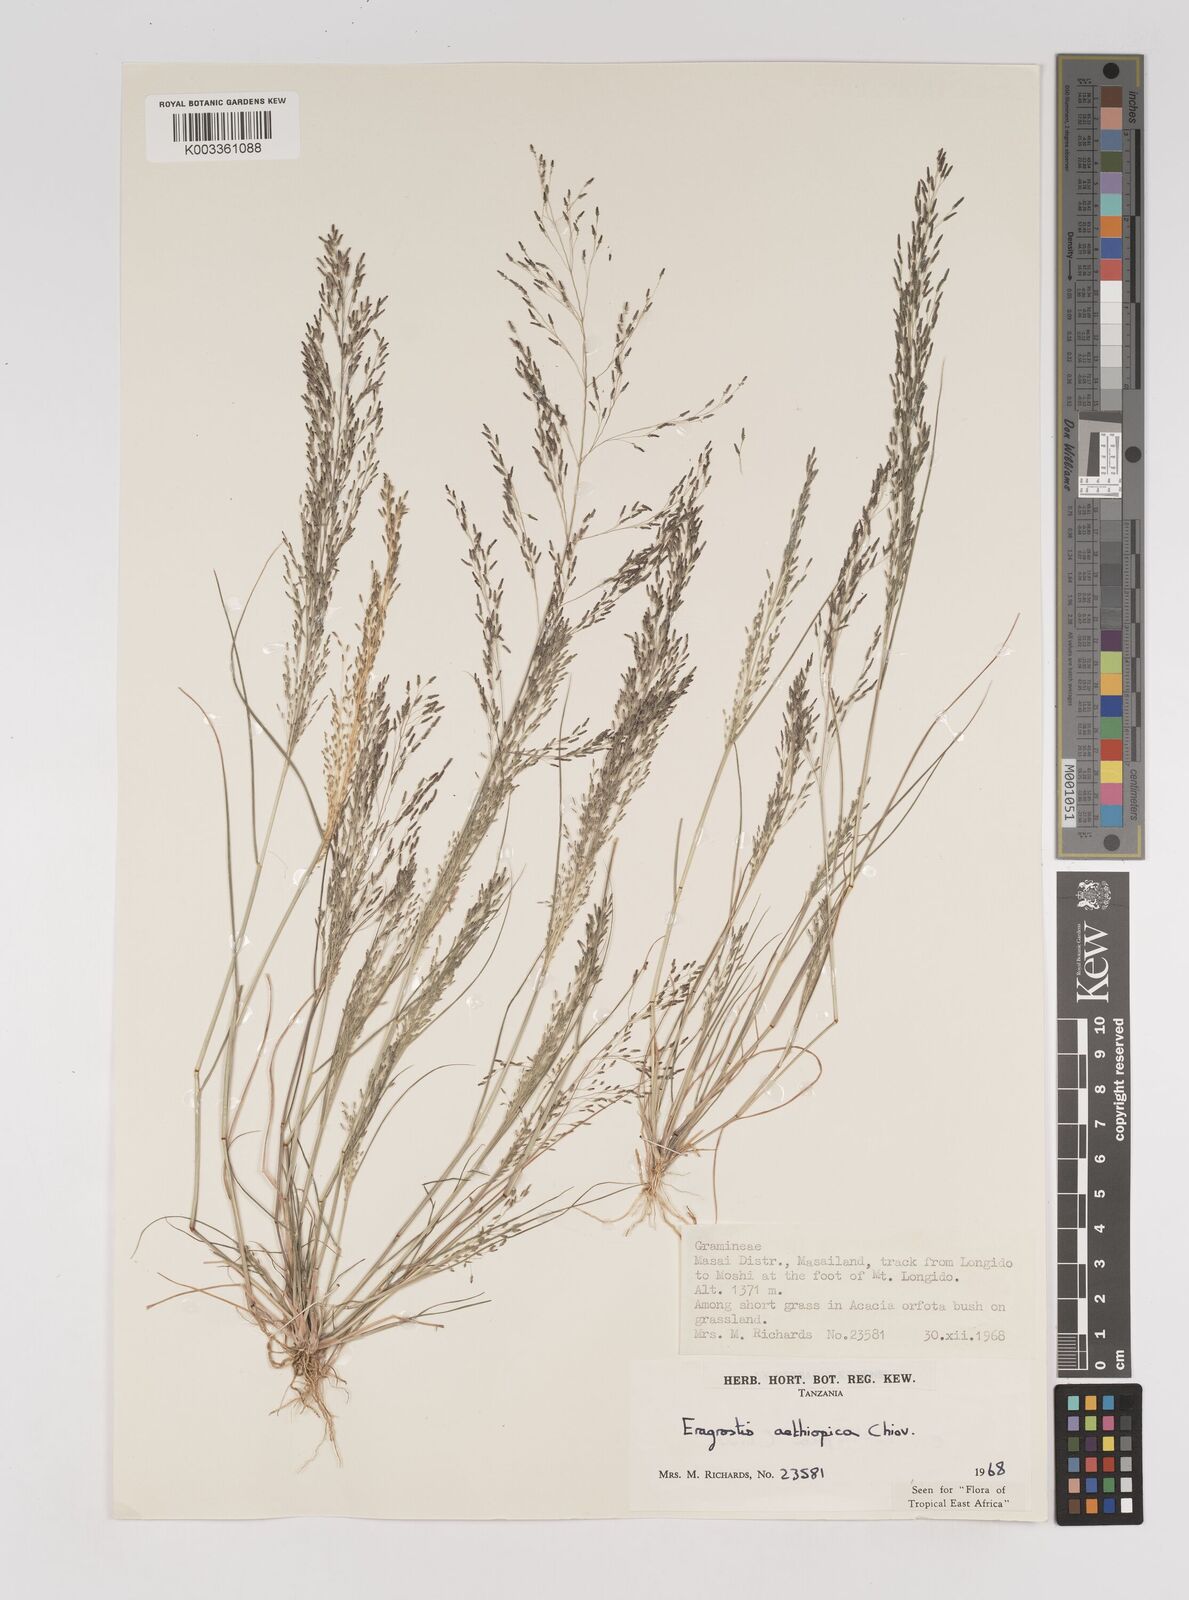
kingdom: Plantae
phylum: Tracheophyta
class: Liliopsida
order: Poales
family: Poaceae
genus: Eragrostis
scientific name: Eragrostis aethiopica
